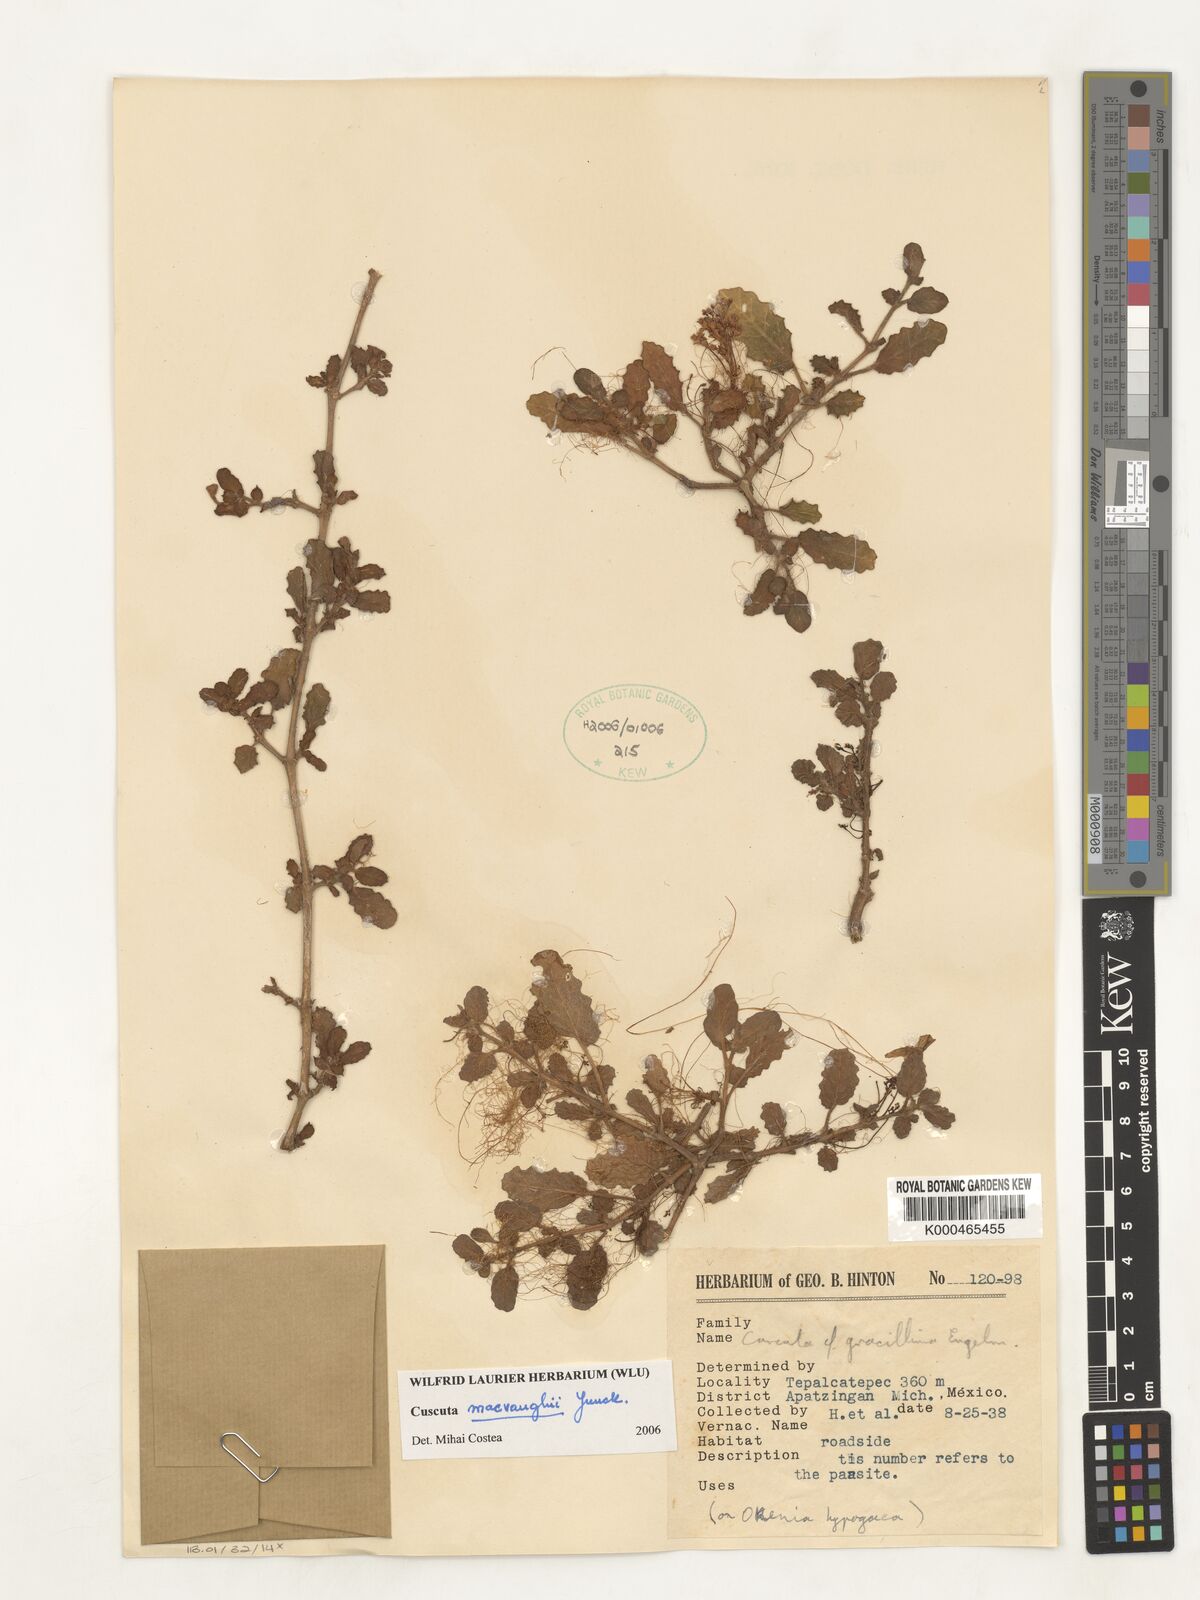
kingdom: Plantae
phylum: Tracheophyta
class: Magnoliopsida
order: Solanales
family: Convolvulaceae
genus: Cuscuta
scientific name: Cuscuta macvaughii
